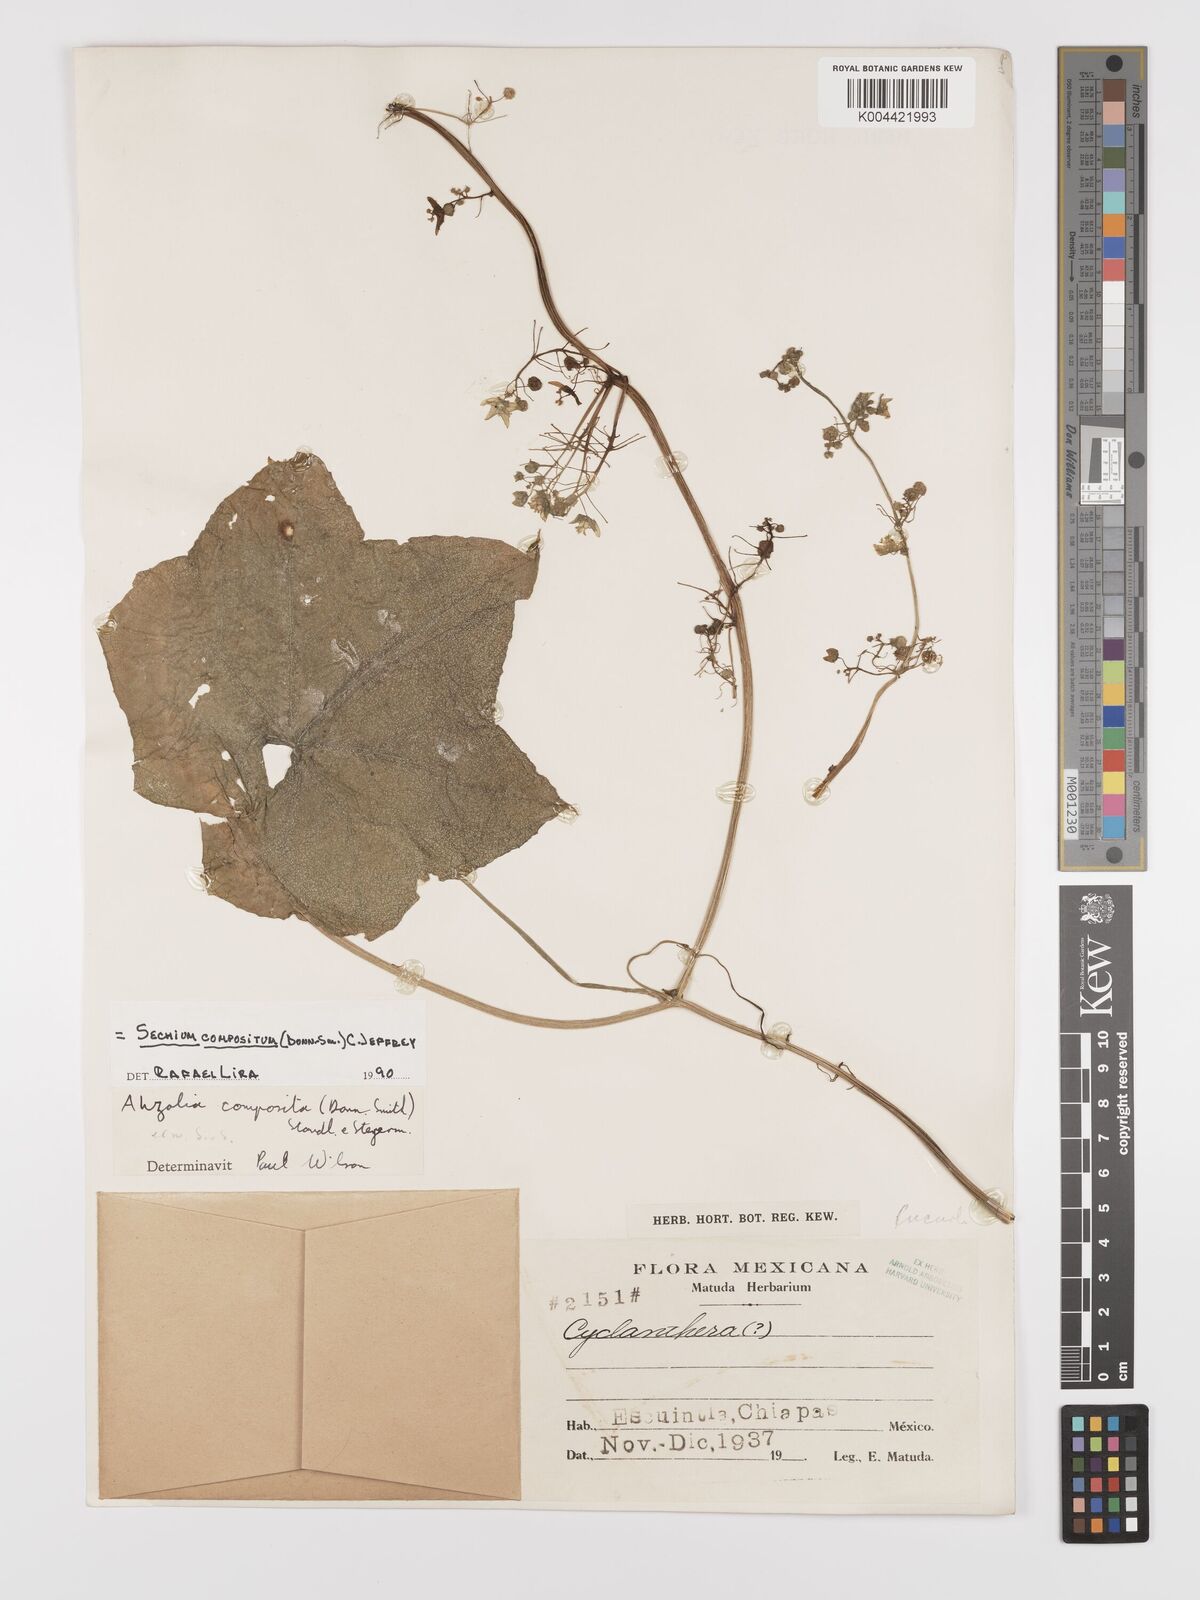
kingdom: Plantae
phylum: Tracheophyta
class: Magnoliopsida
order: Cucurbitales
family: Cucurbitaceae
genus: Sechium
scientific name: Sechium compositum
